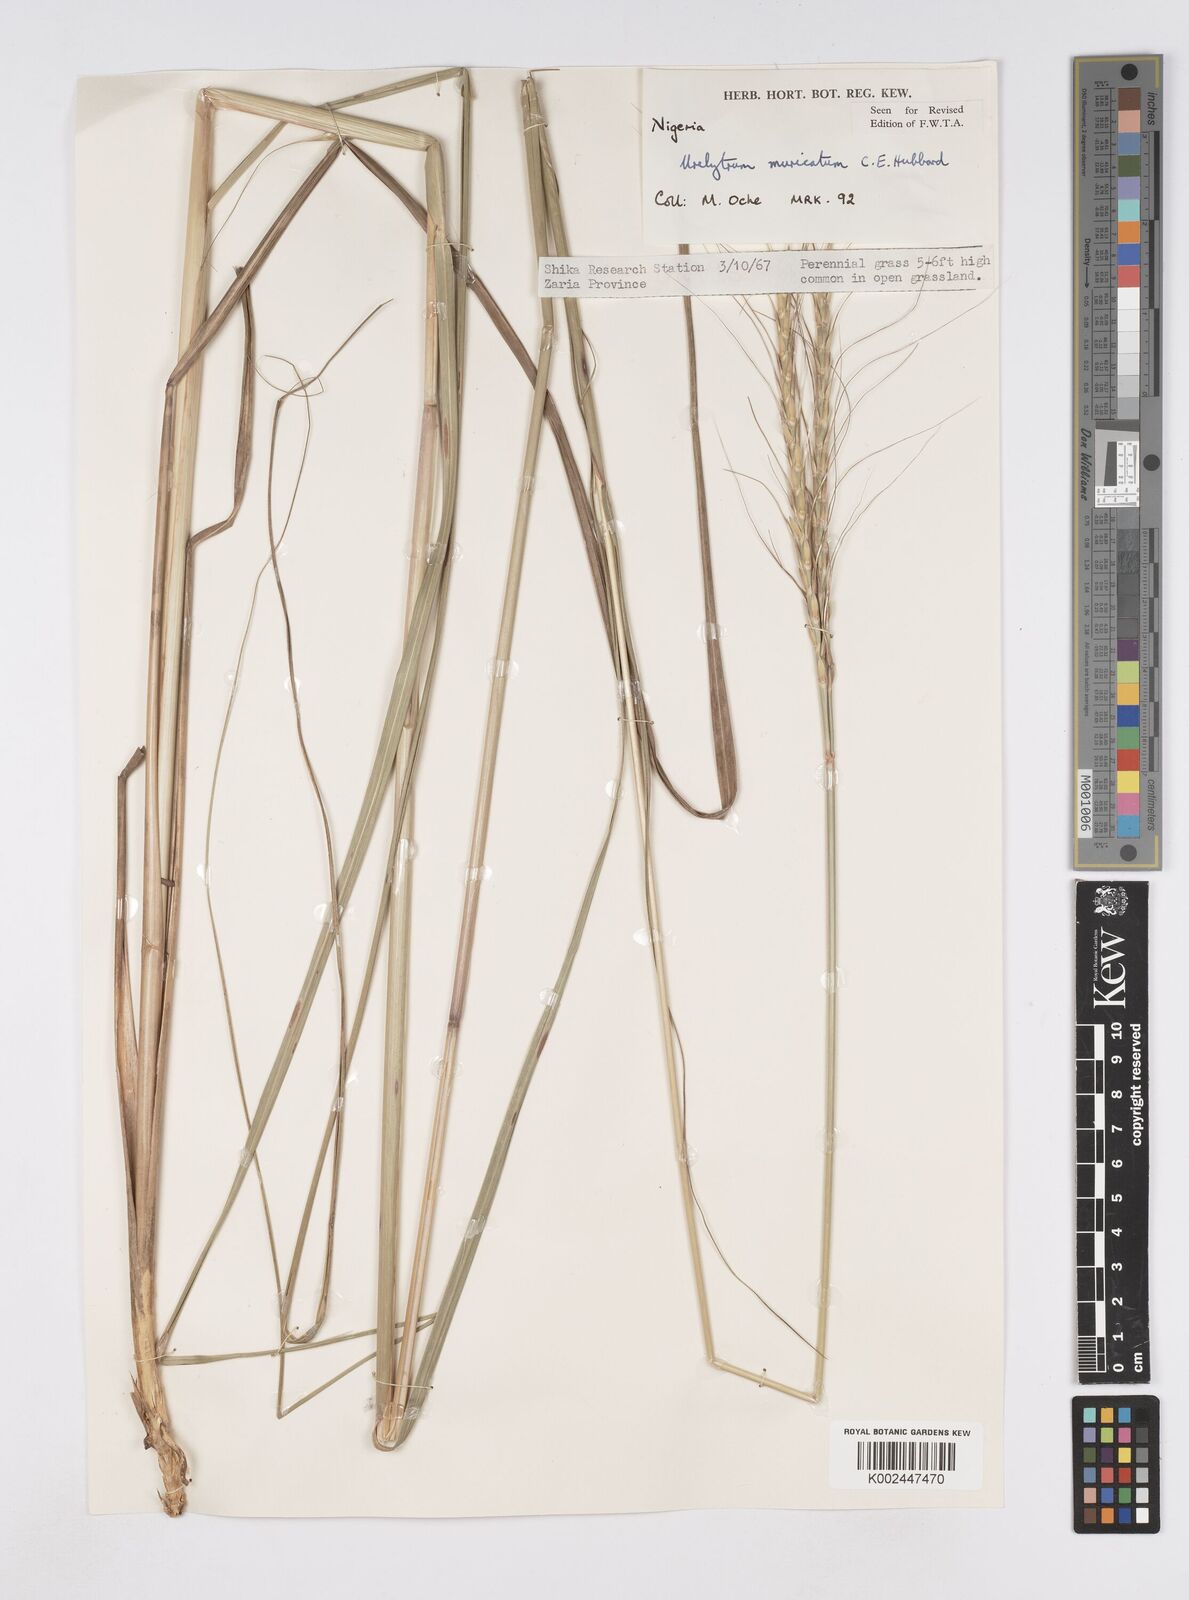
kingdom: Plantae
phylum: Tracheophyta
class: Liliopsida
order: Poales
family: Poaceae
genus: Urelytrum
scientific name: Urelytrum muricatum
